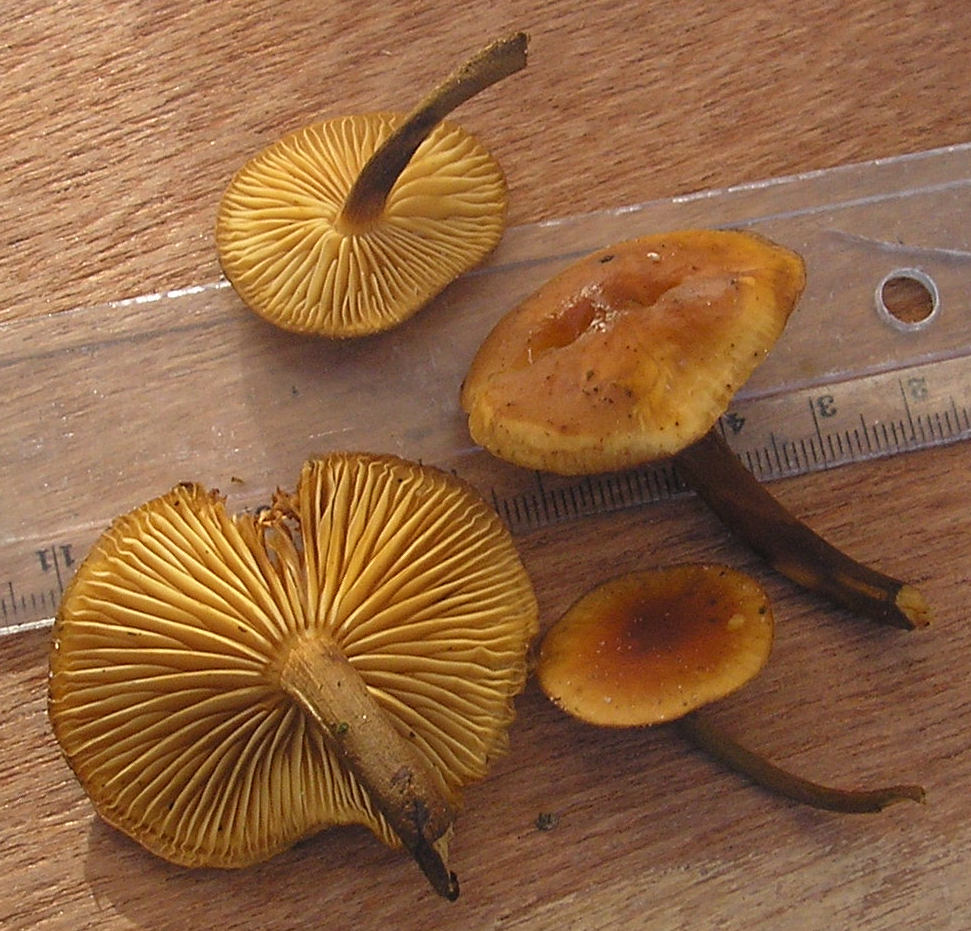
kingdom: Fungi
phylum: Basidiomycota
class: Agaricomycetes
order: Agaricales
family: Physalacriaceae
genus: Flammulina
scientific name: Flammulina elastica
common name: pile-fløjlsfod
